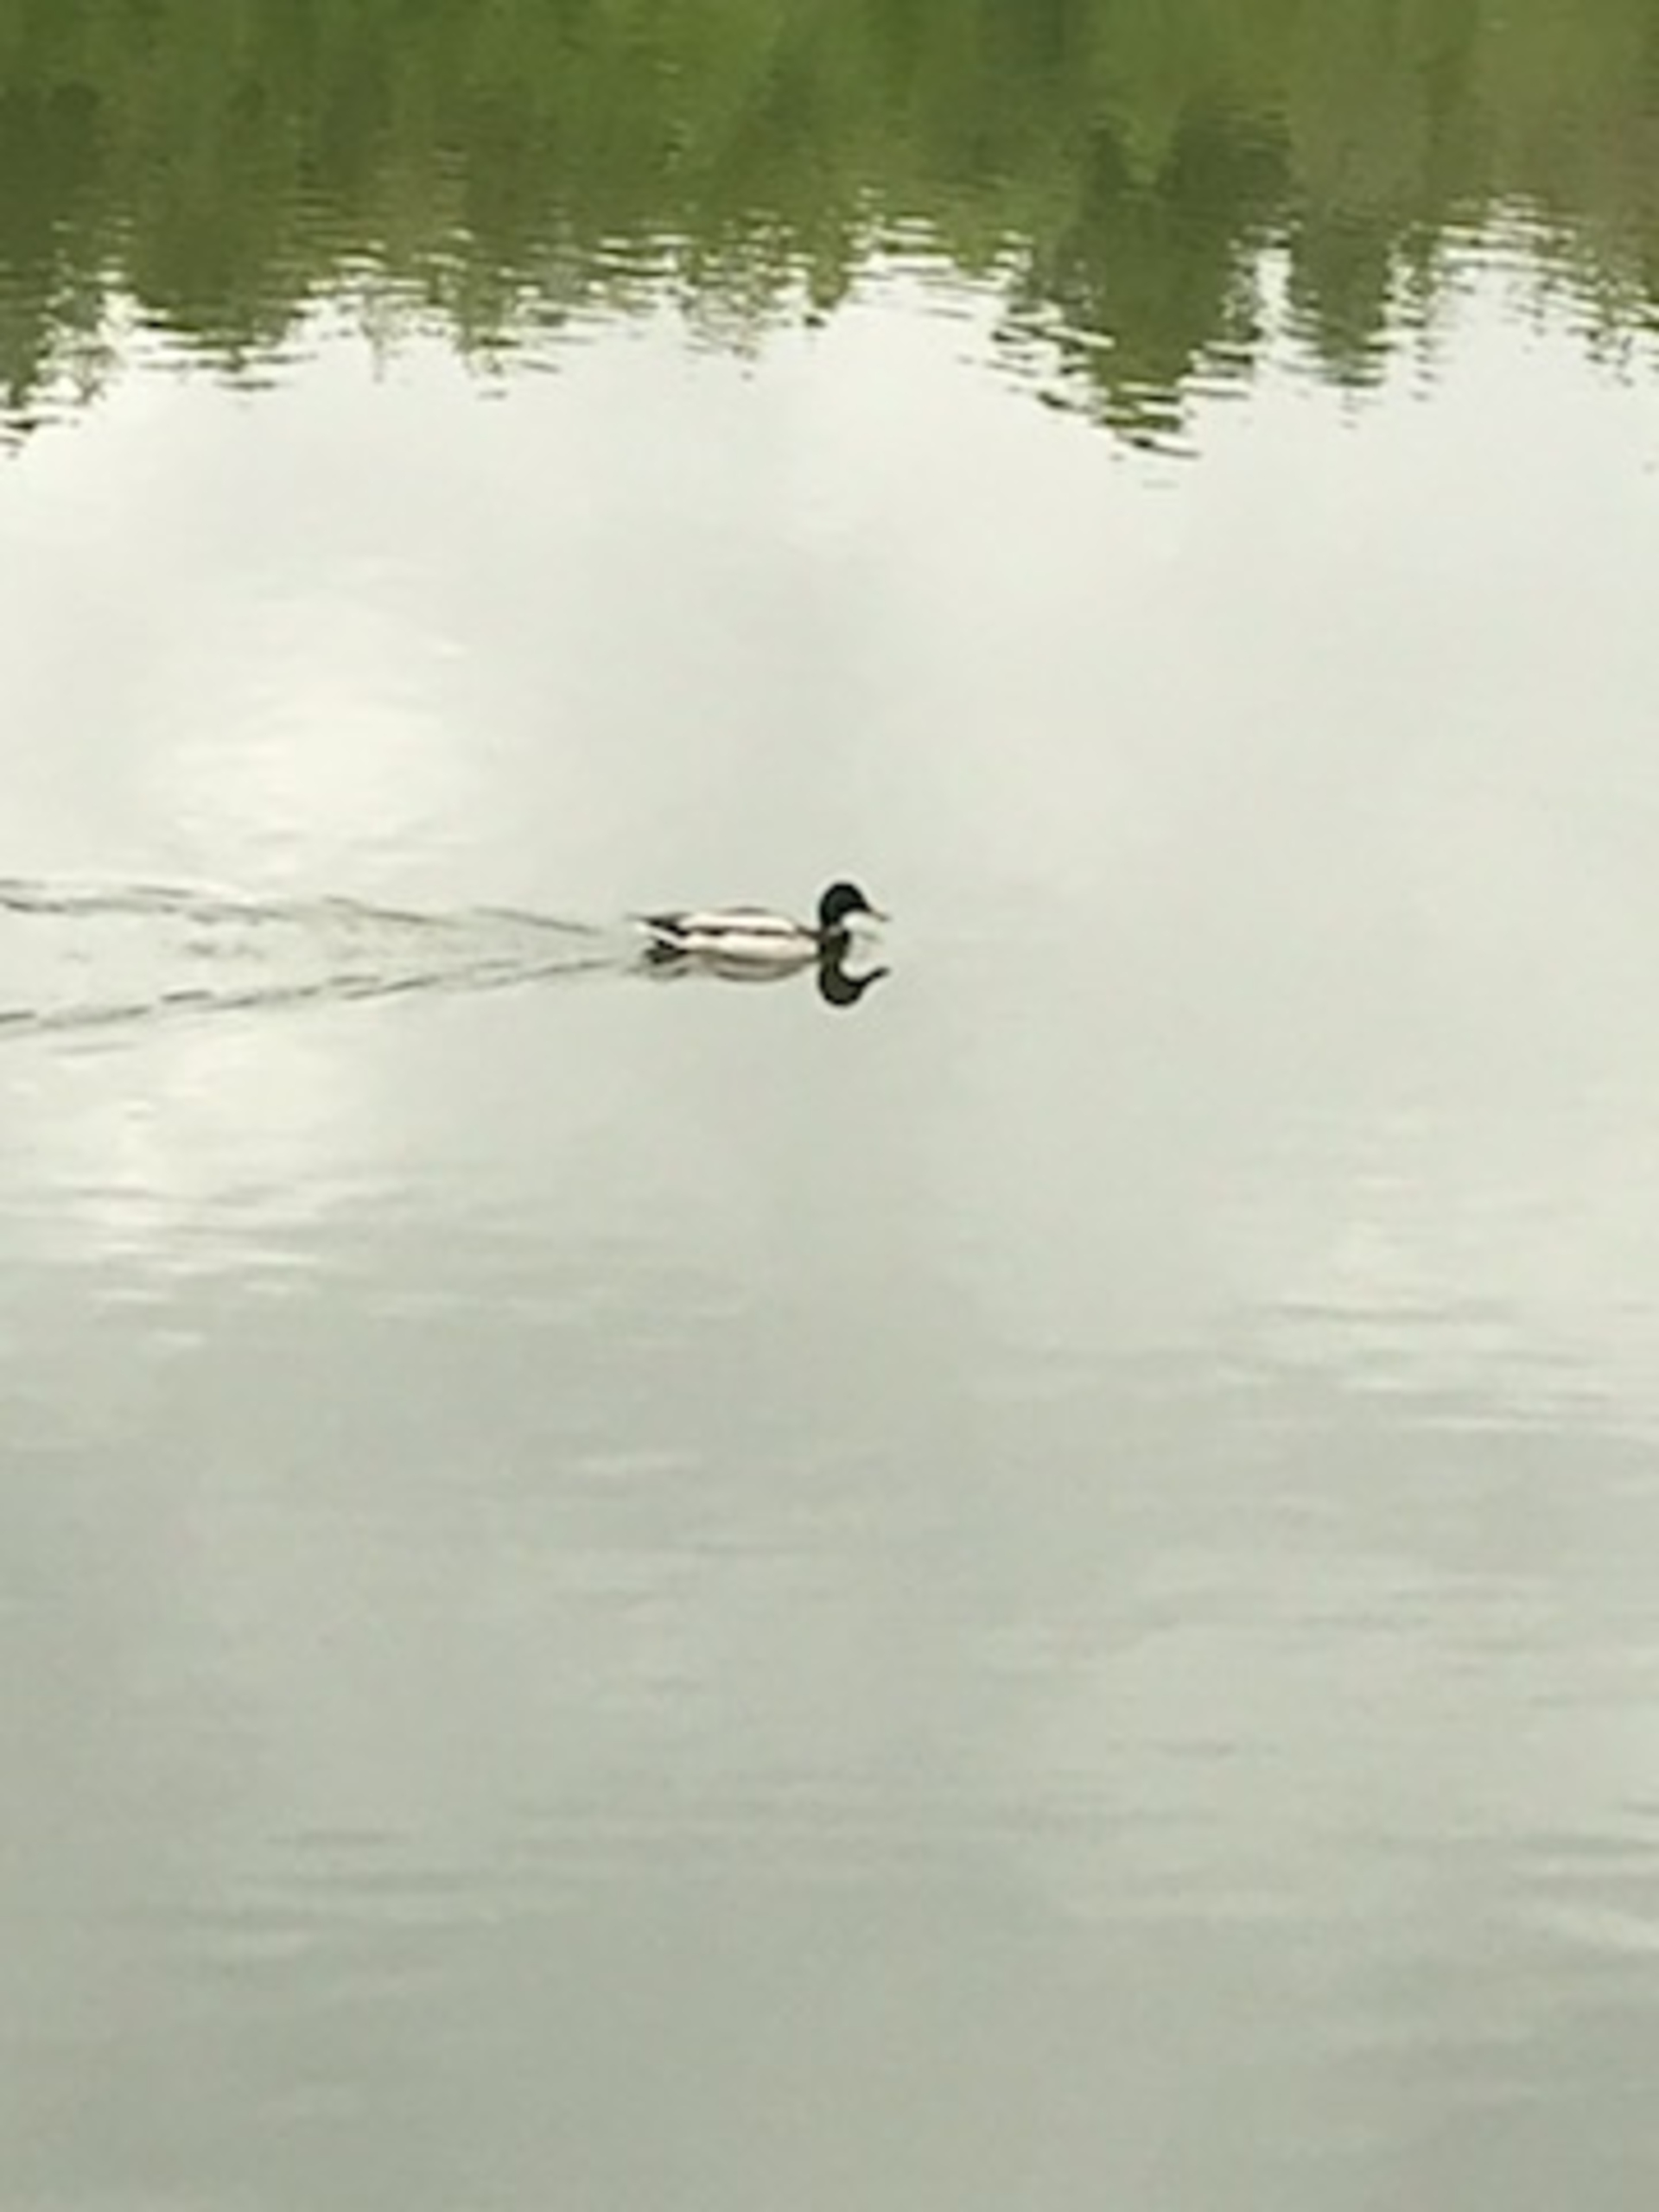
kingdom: Animalia
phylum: Chordata
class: Aves
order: Anseriformes
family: Anatidae
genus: Anas
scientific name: Anas platyrhynchos
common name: Gråand
